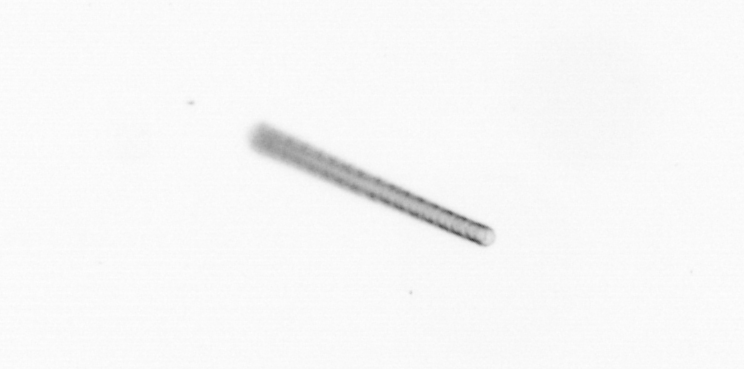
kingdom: Chromista
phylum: Ochrophyta
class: Bacillariophyceae
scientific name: Bacillariophyceae
